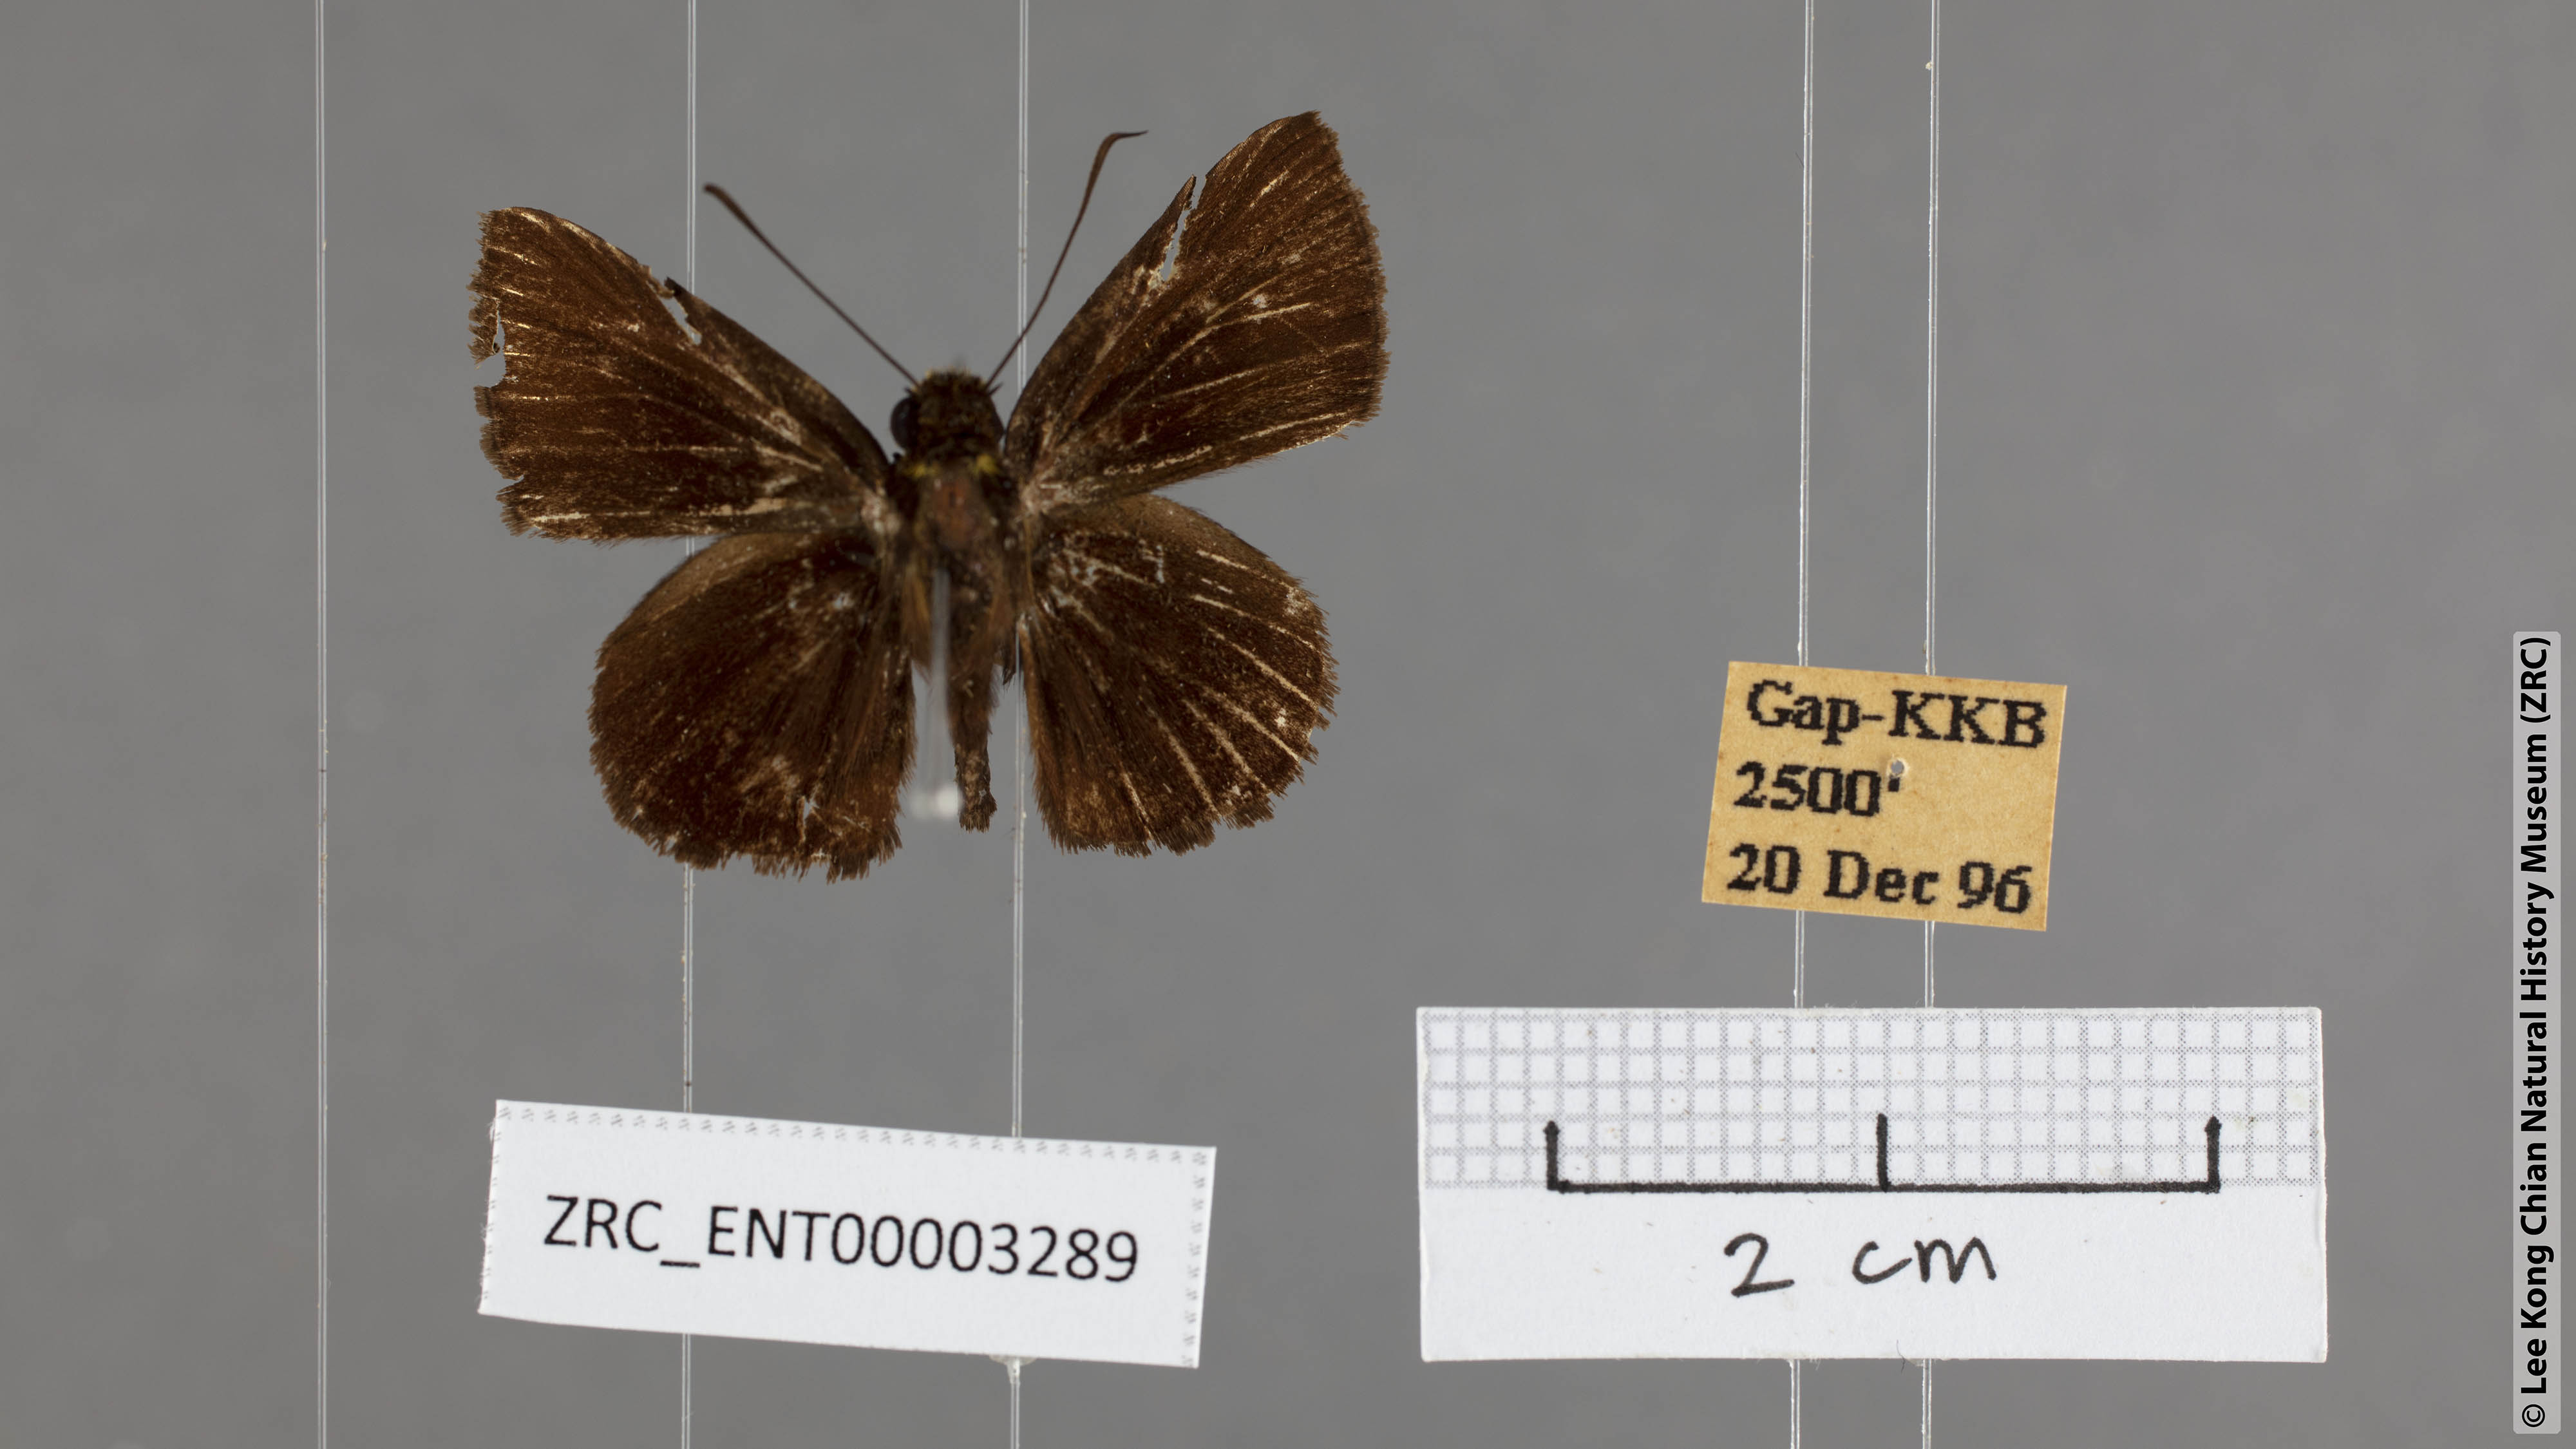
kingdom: Animalia
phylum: Arthropoda
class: Insecta
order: Lepidoptera
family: Hesperiidae
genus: Iambrix
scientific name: Iambrix
